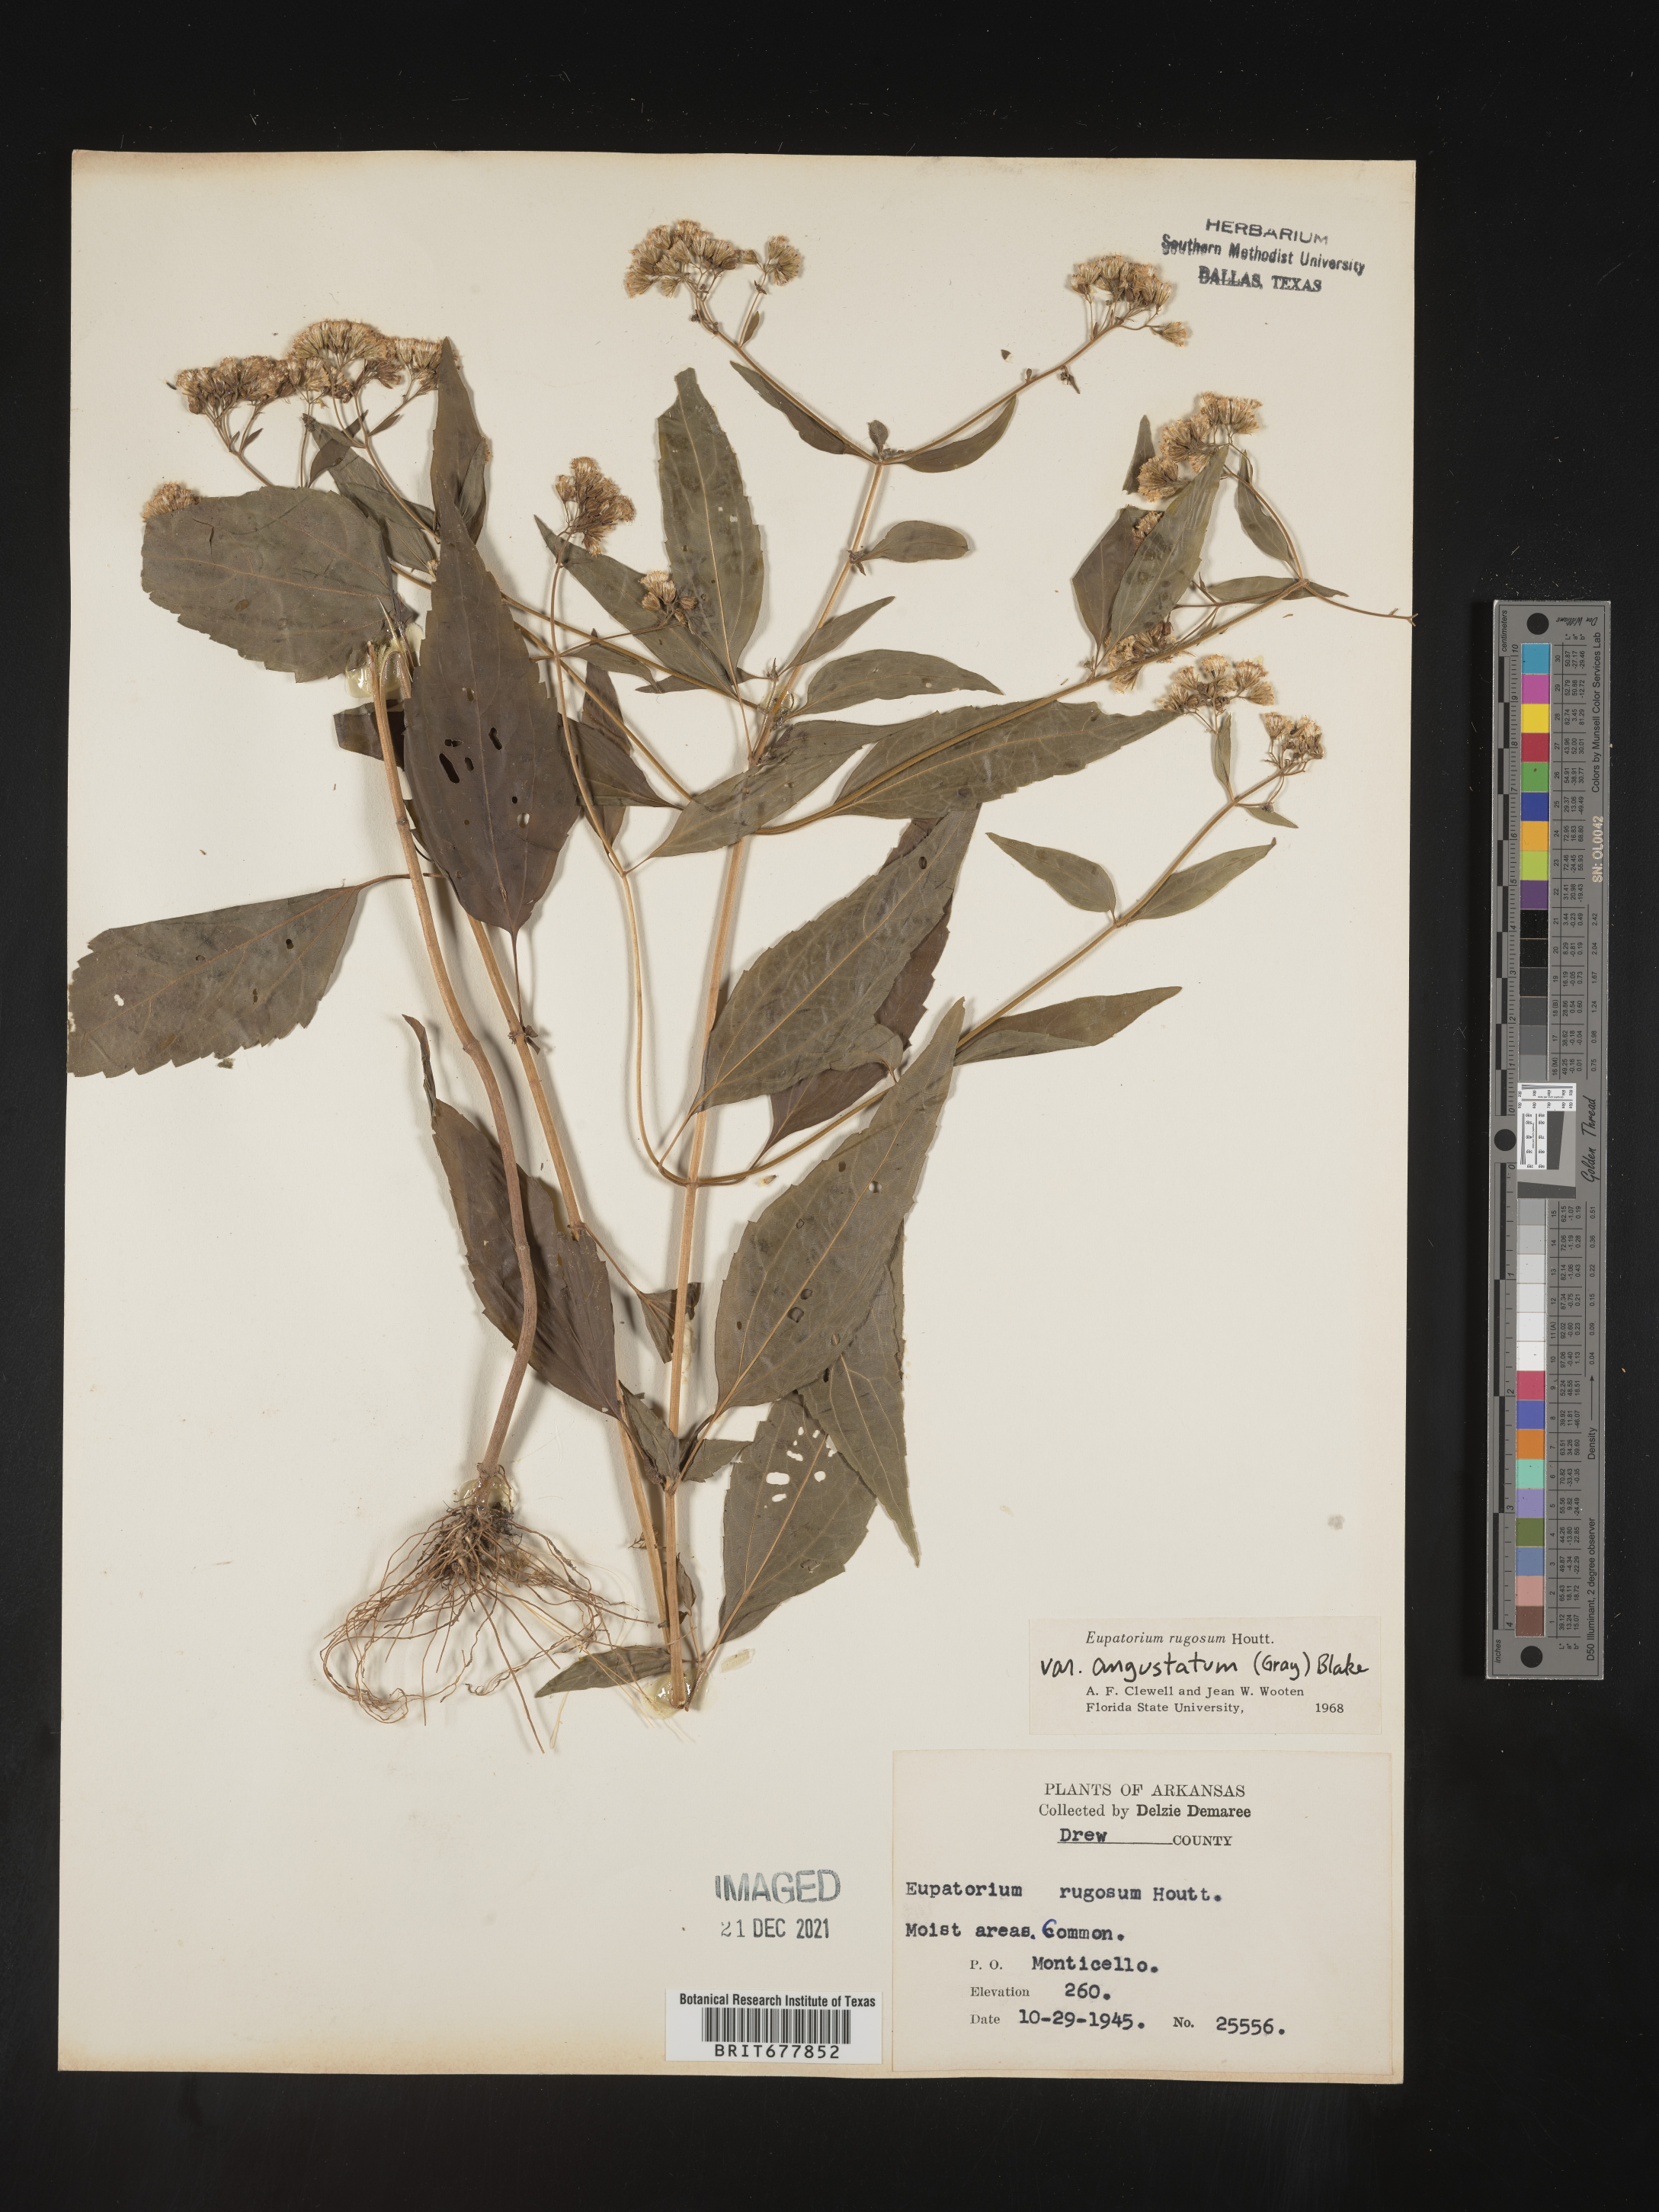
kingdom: Plantae
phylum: Tracheophyta
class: Magnoliopsida
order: Asterales
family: Asteraceae
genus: Ageratina
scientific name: Ageratina altissima
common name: White snakeroot
